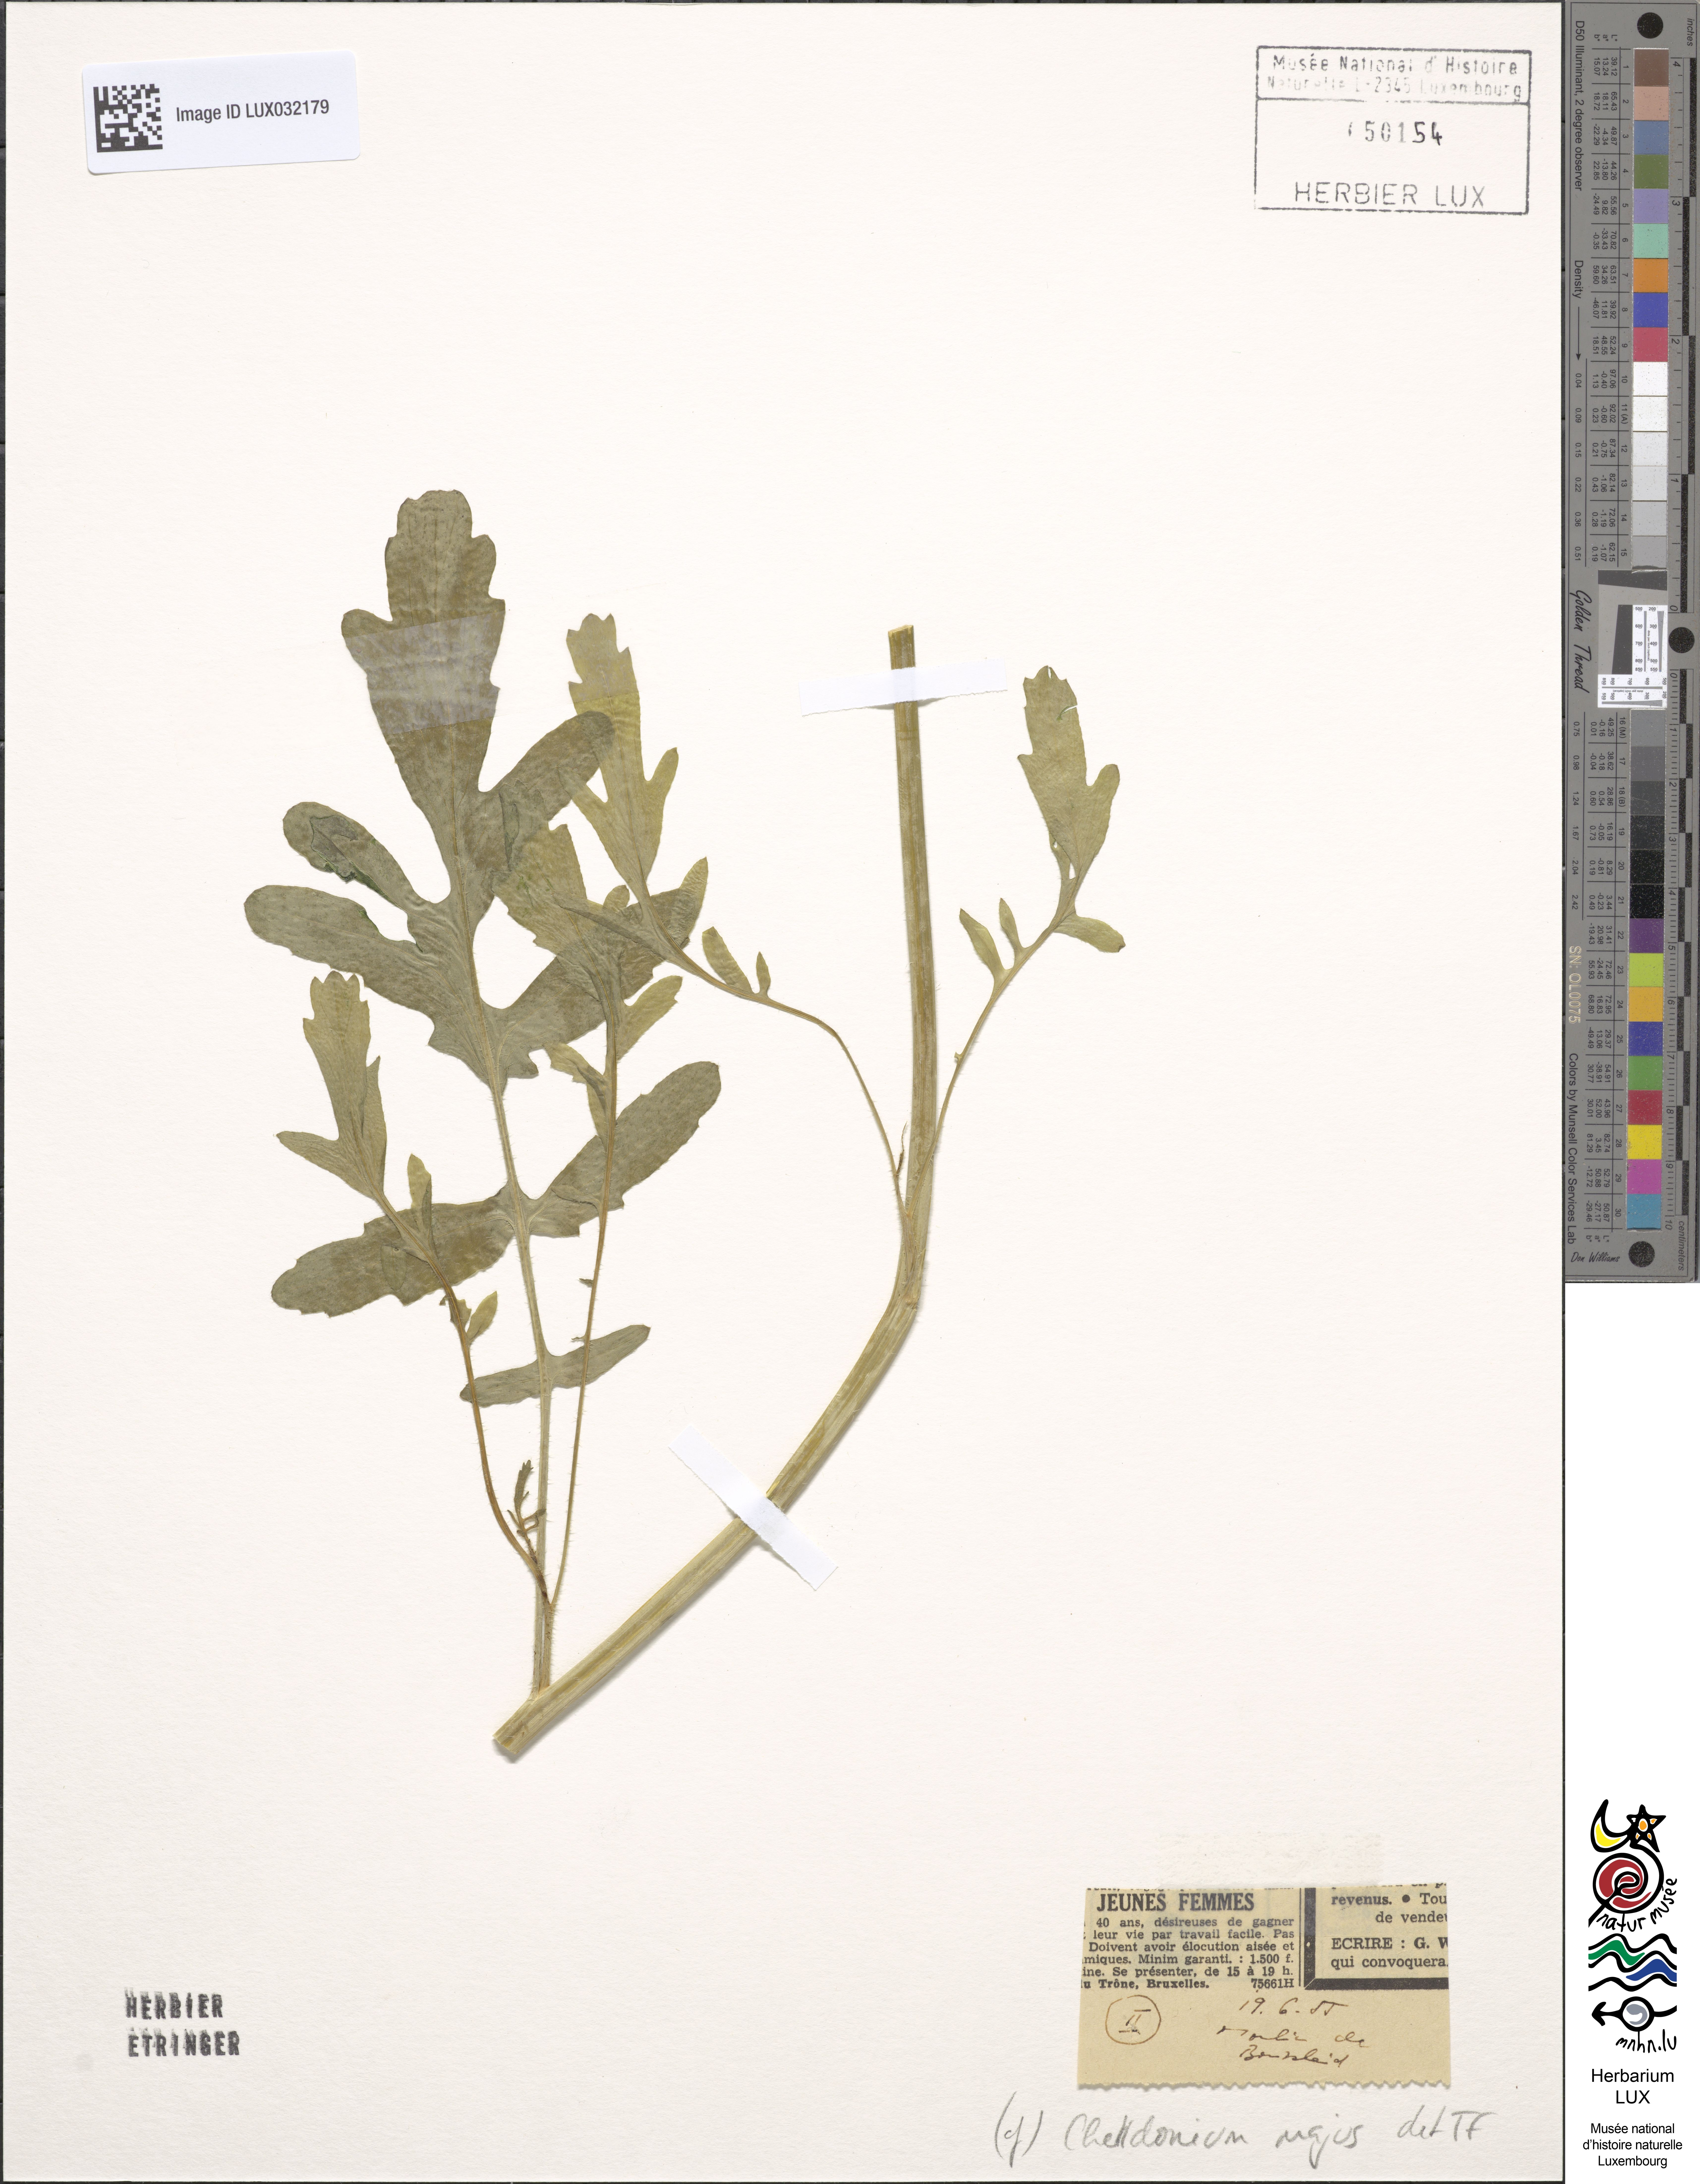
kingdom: Plantae
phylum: Tracheophyta
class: Magnoliopsida
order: Ranunculales
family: Papaveraceae
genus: Chelidonium
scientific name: Chelidonium majus
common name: Greater celandine
